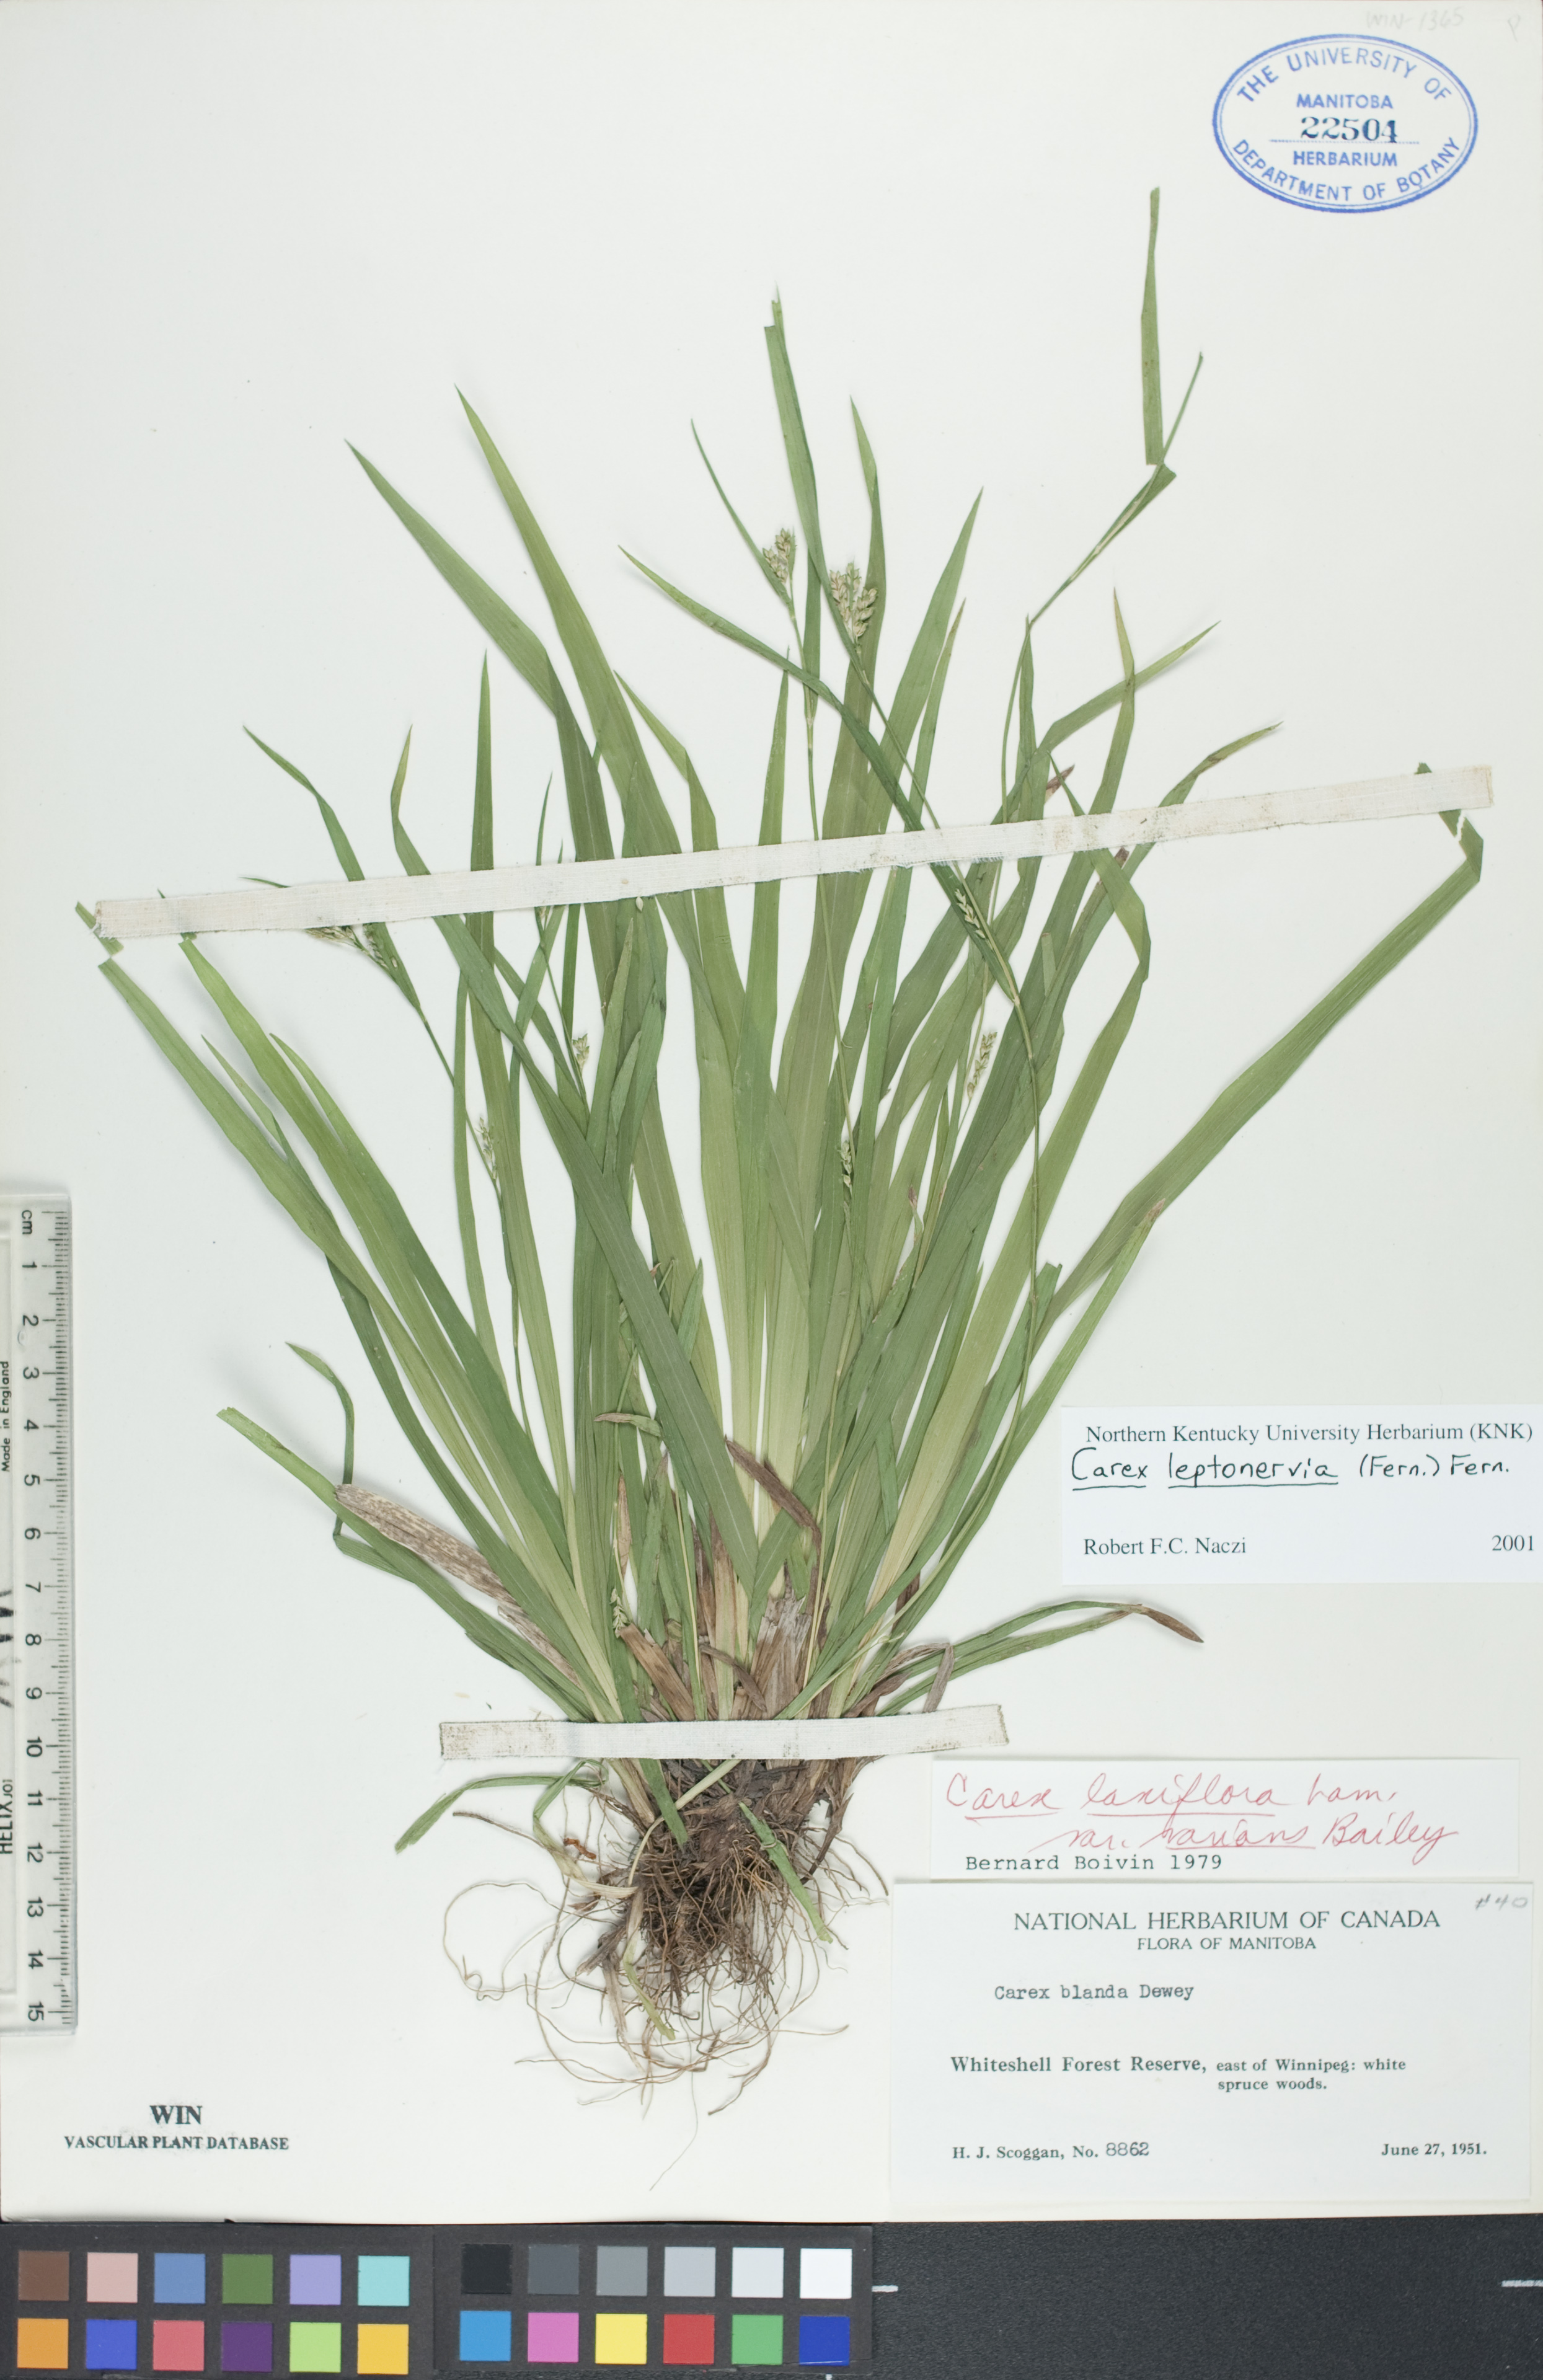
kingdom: Plantae
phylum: Tracheophyta
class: Liliopsida
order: Poales
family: Cyperaceae
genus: Carex
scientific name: Carex leptonervia
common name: Few-nerved wood sedge
